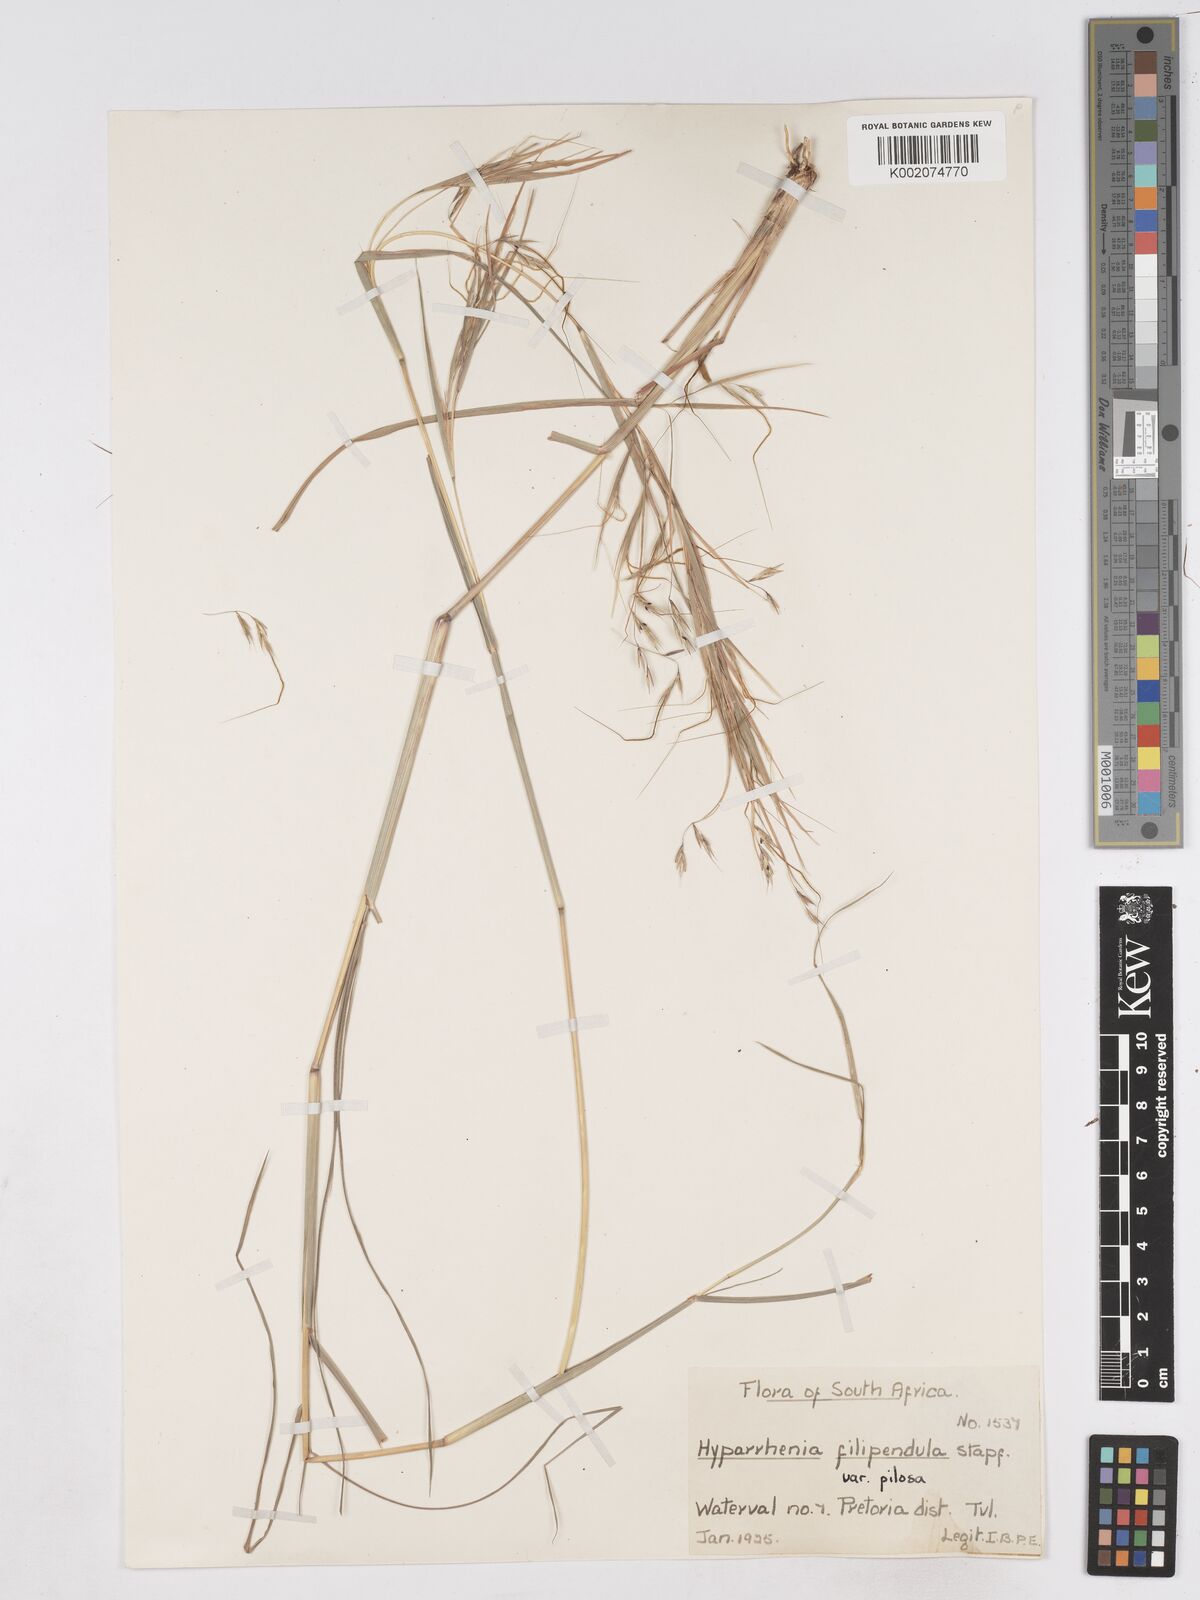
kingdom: Plantae
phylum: Tracheophyta
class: Liliopsida
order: Poales
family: Poaceae
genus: Hyparrhenia
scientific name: Hyparrhenia filipendula
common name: Tambookie grass
